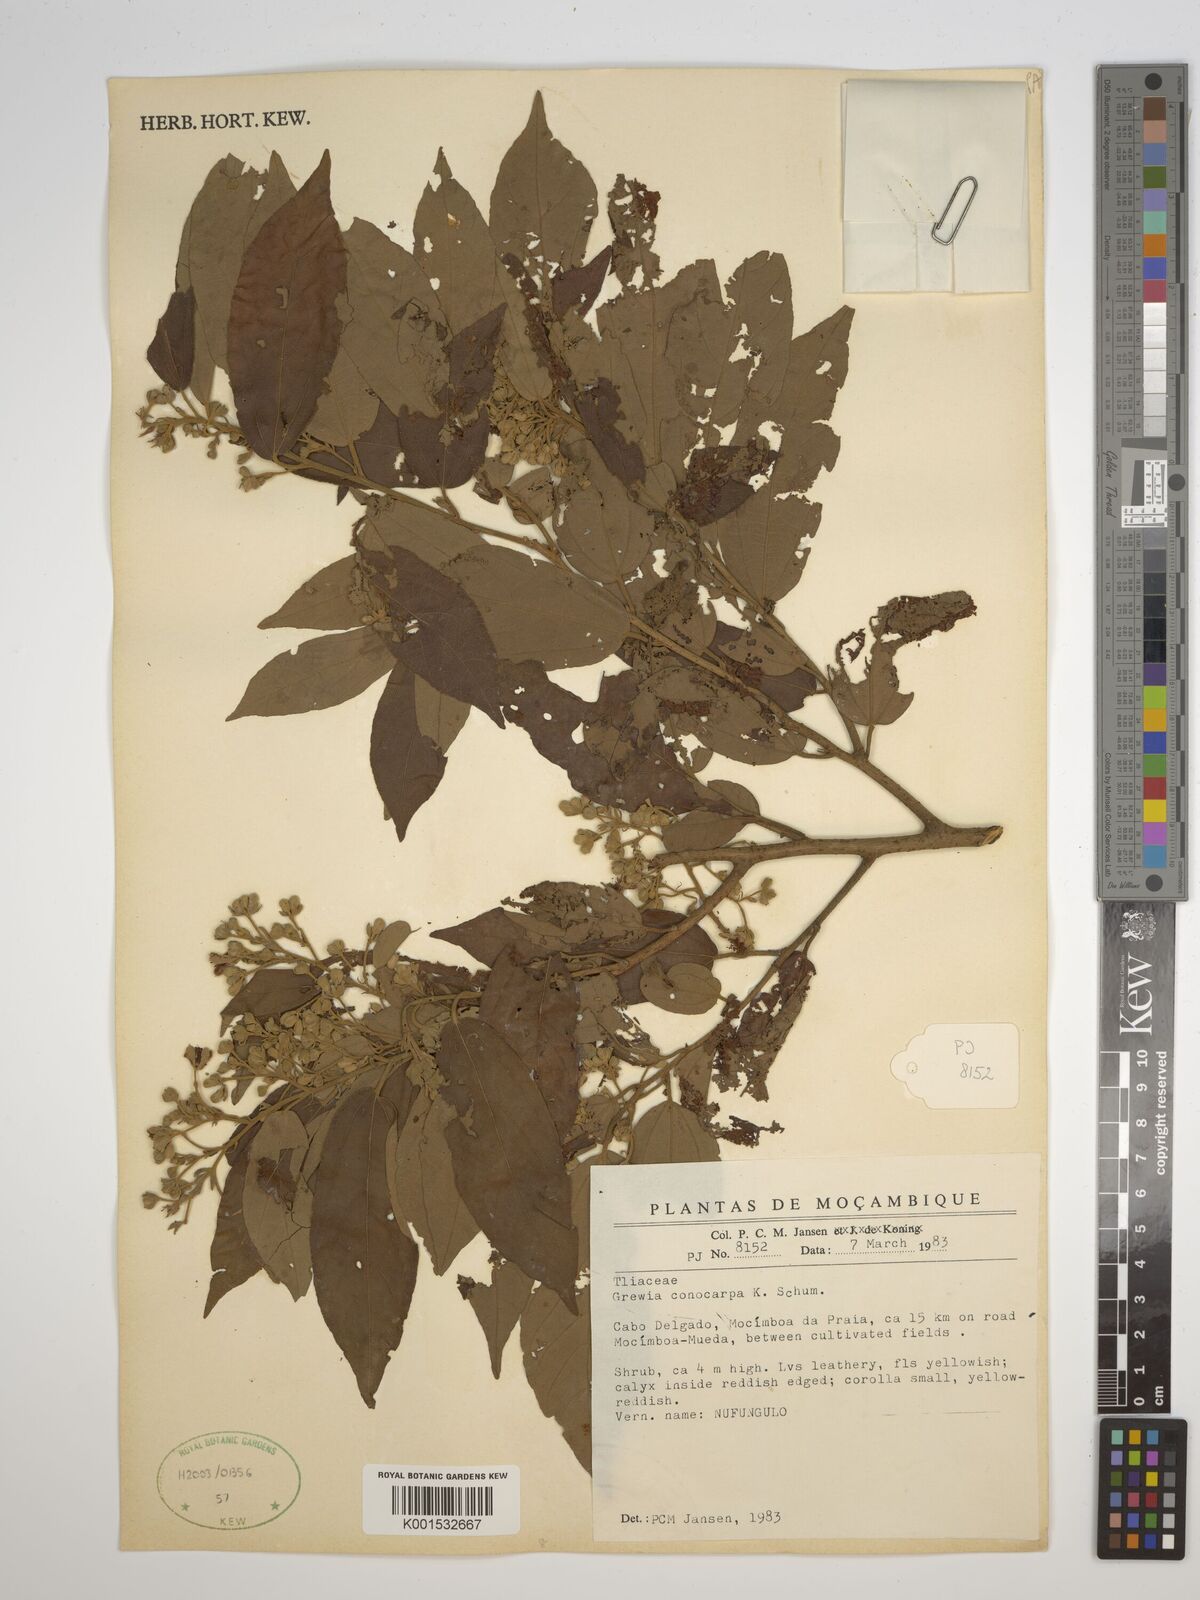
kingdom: Plantae
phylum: Tracheophyta
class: Magnoliopsida
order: Malvales
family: Malvaceae
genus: Microcos
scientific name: Microcos conocarpa
